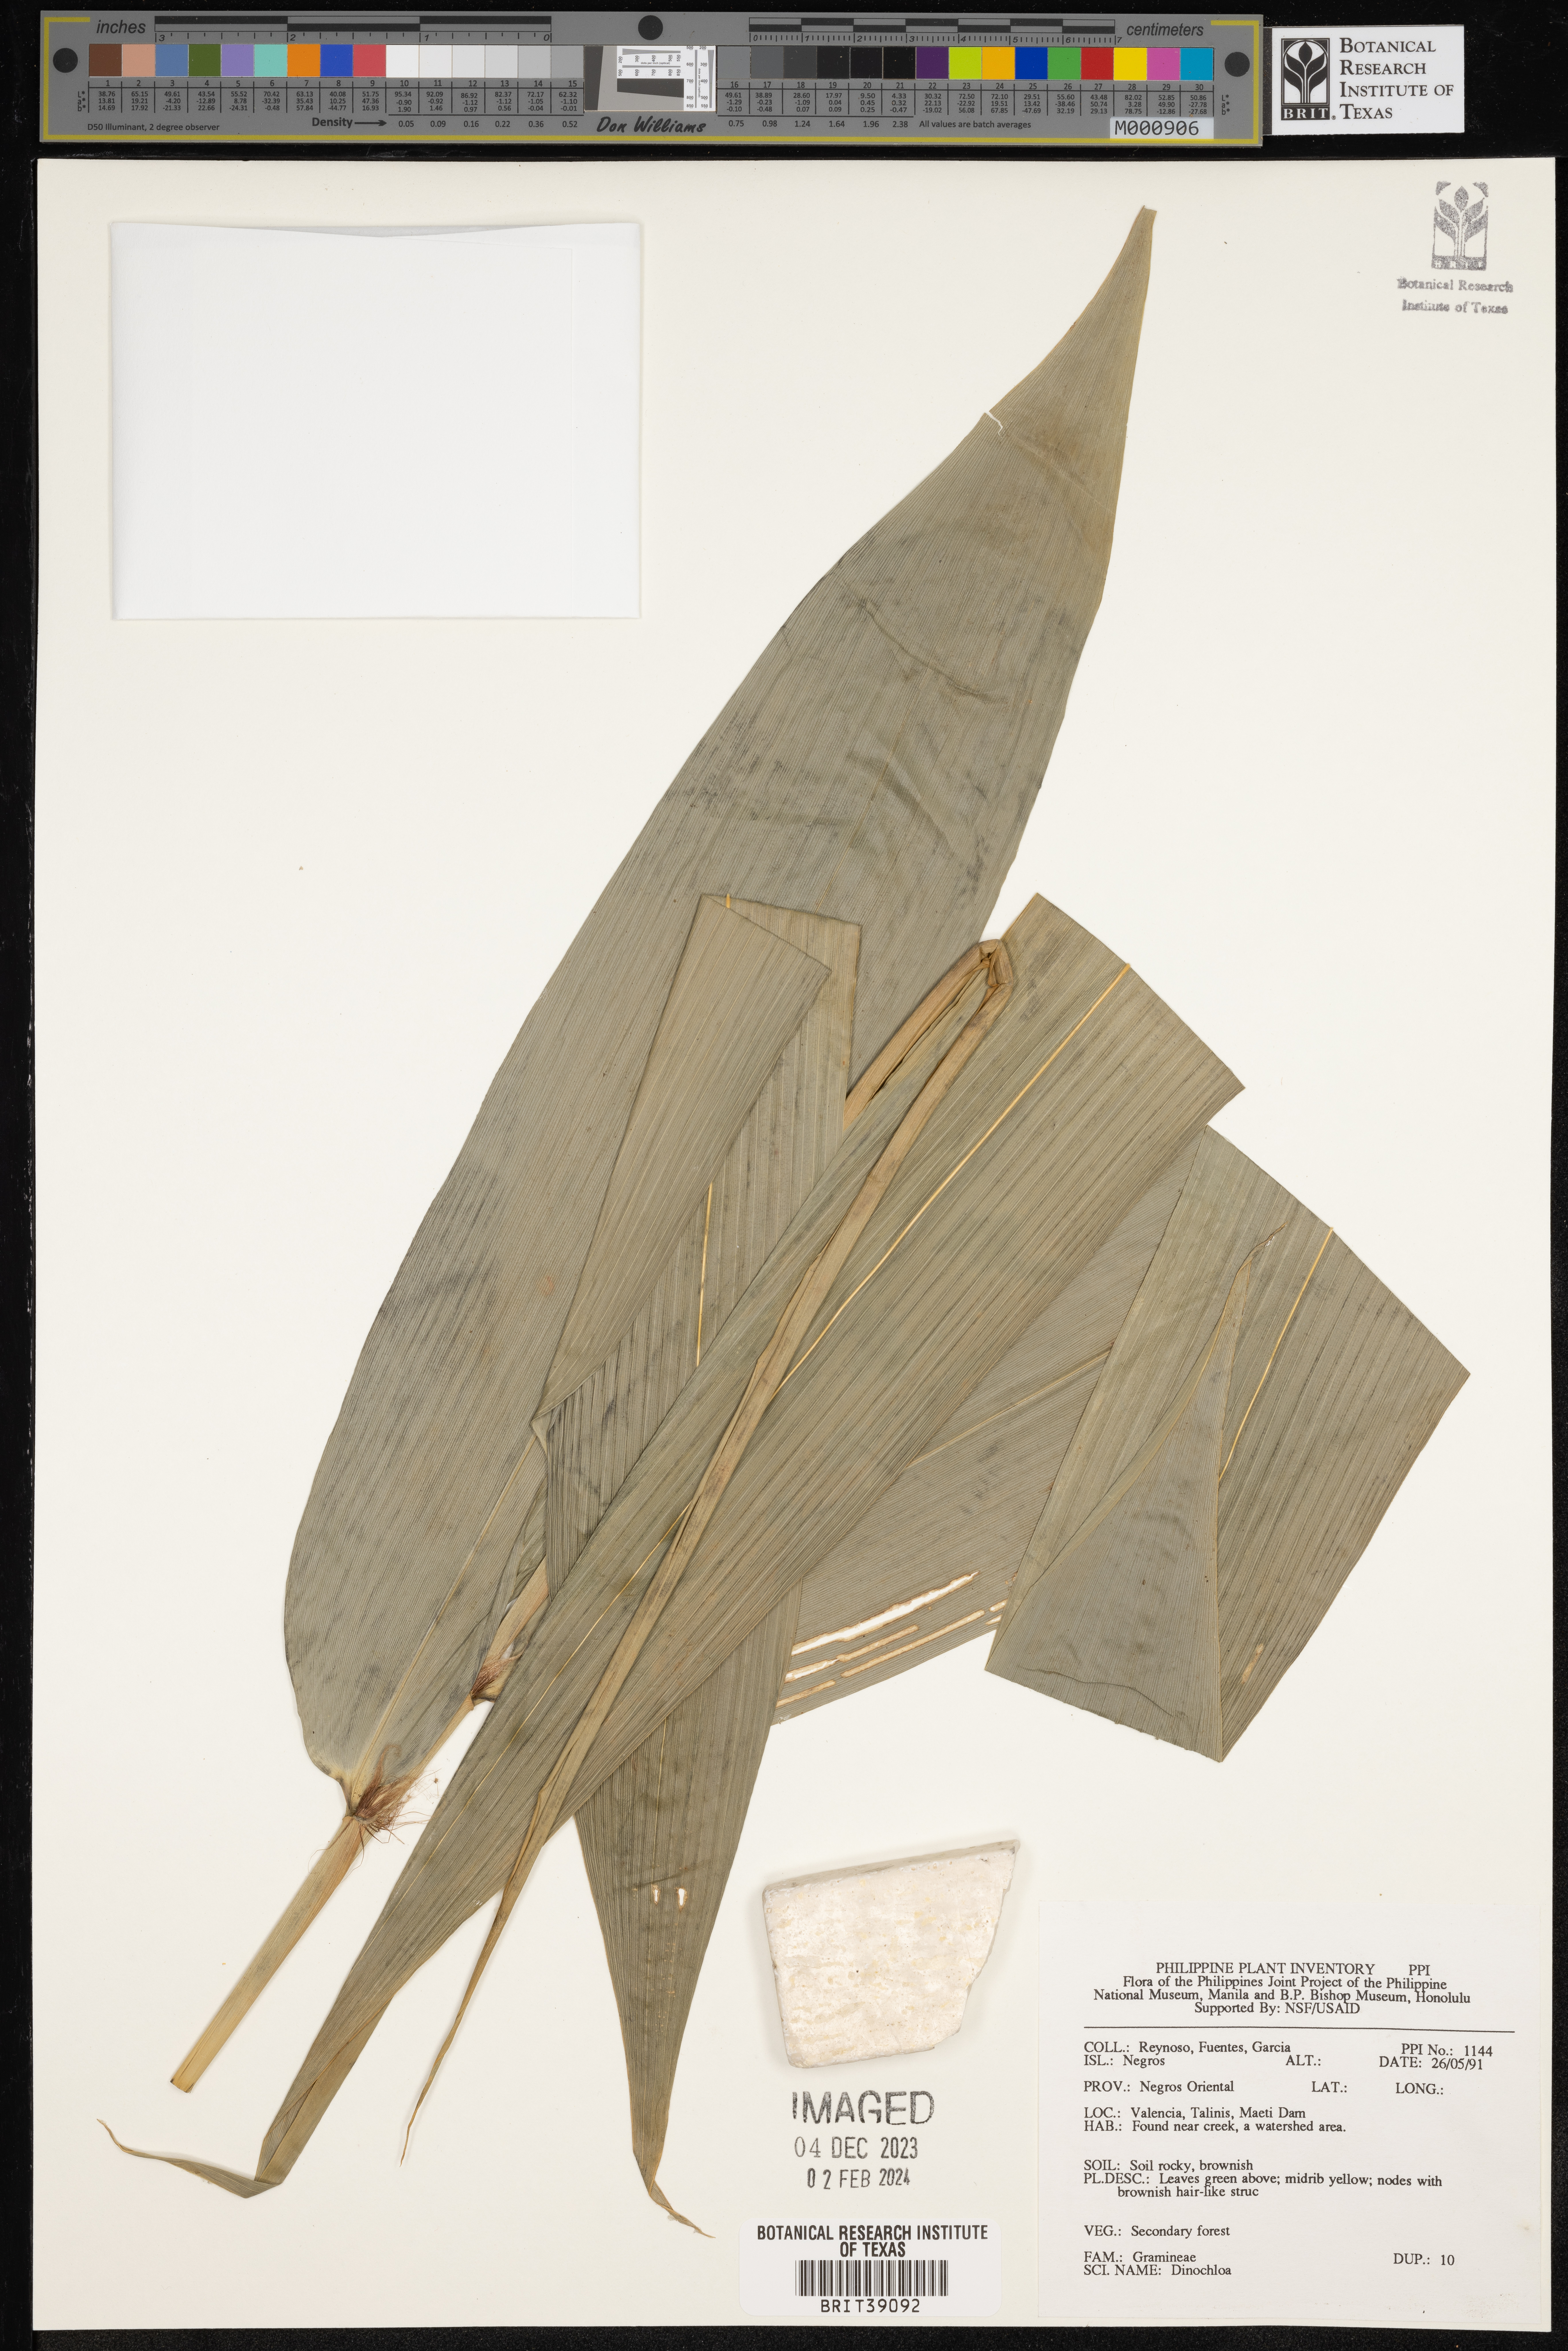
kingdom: Plantae
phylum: Tracheophyta
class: Liliopsida
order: Poales
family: Poaceae
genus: Dinochloa
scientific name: Dinochloa
